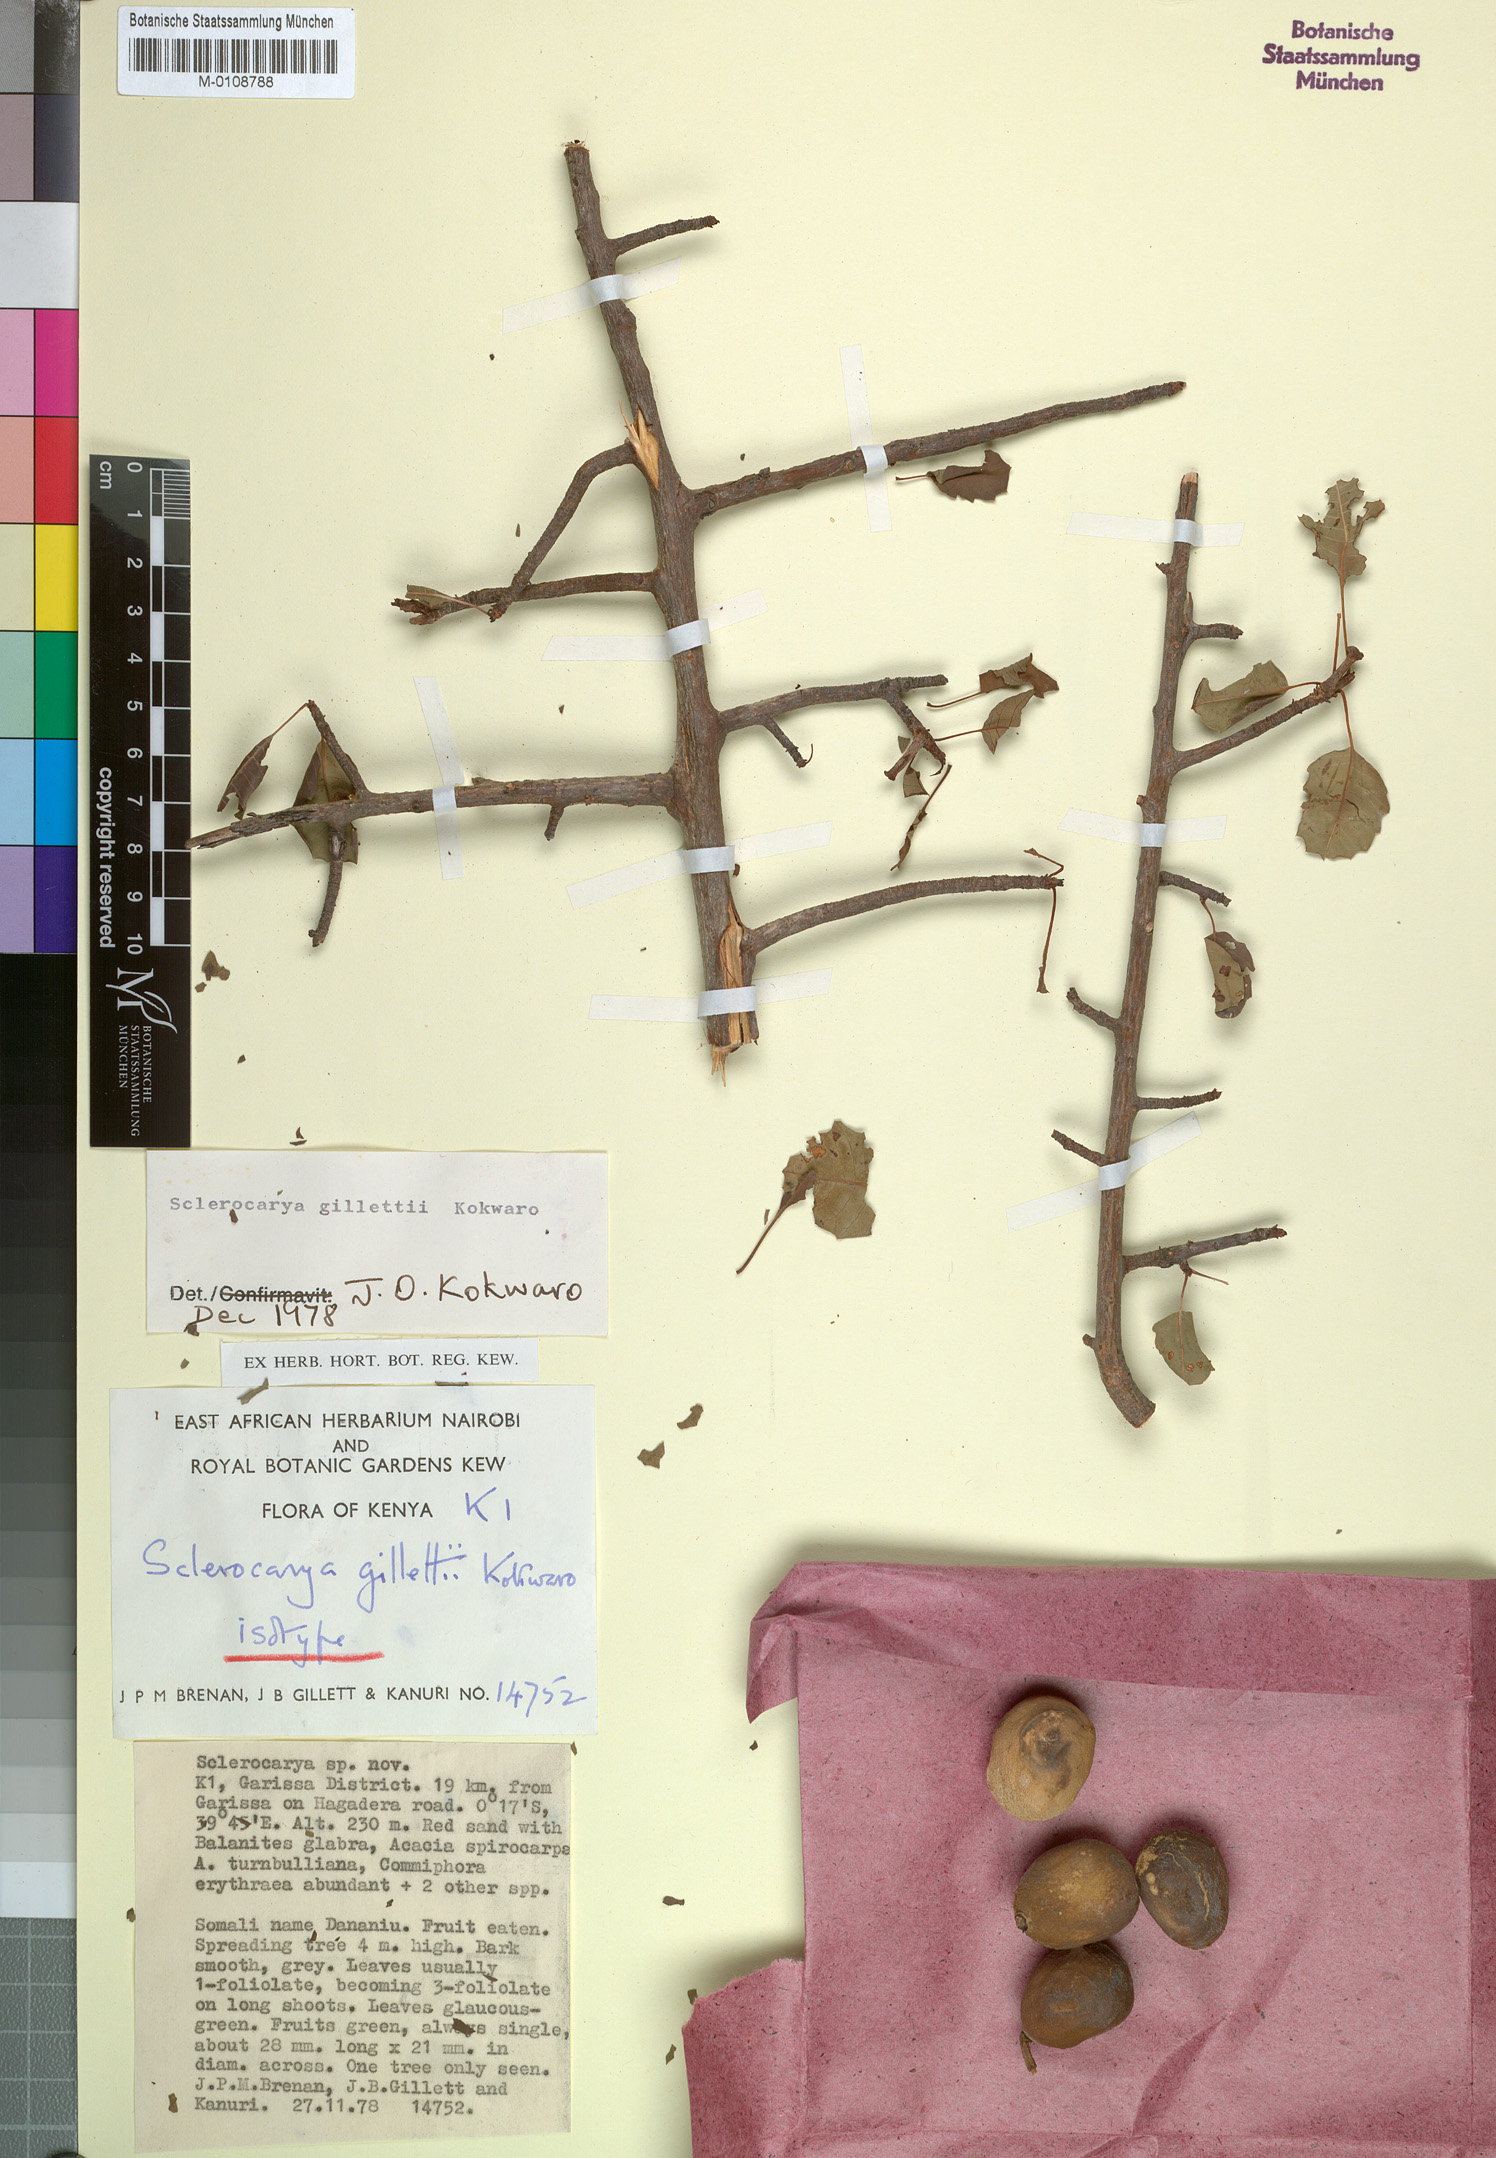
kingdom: Plantae
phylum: Tracheophyta
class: Magnoliopsida
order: Sapindales
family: Anacardiaceae
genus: Sclerocarya
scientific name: Sclerocarya gillettii
